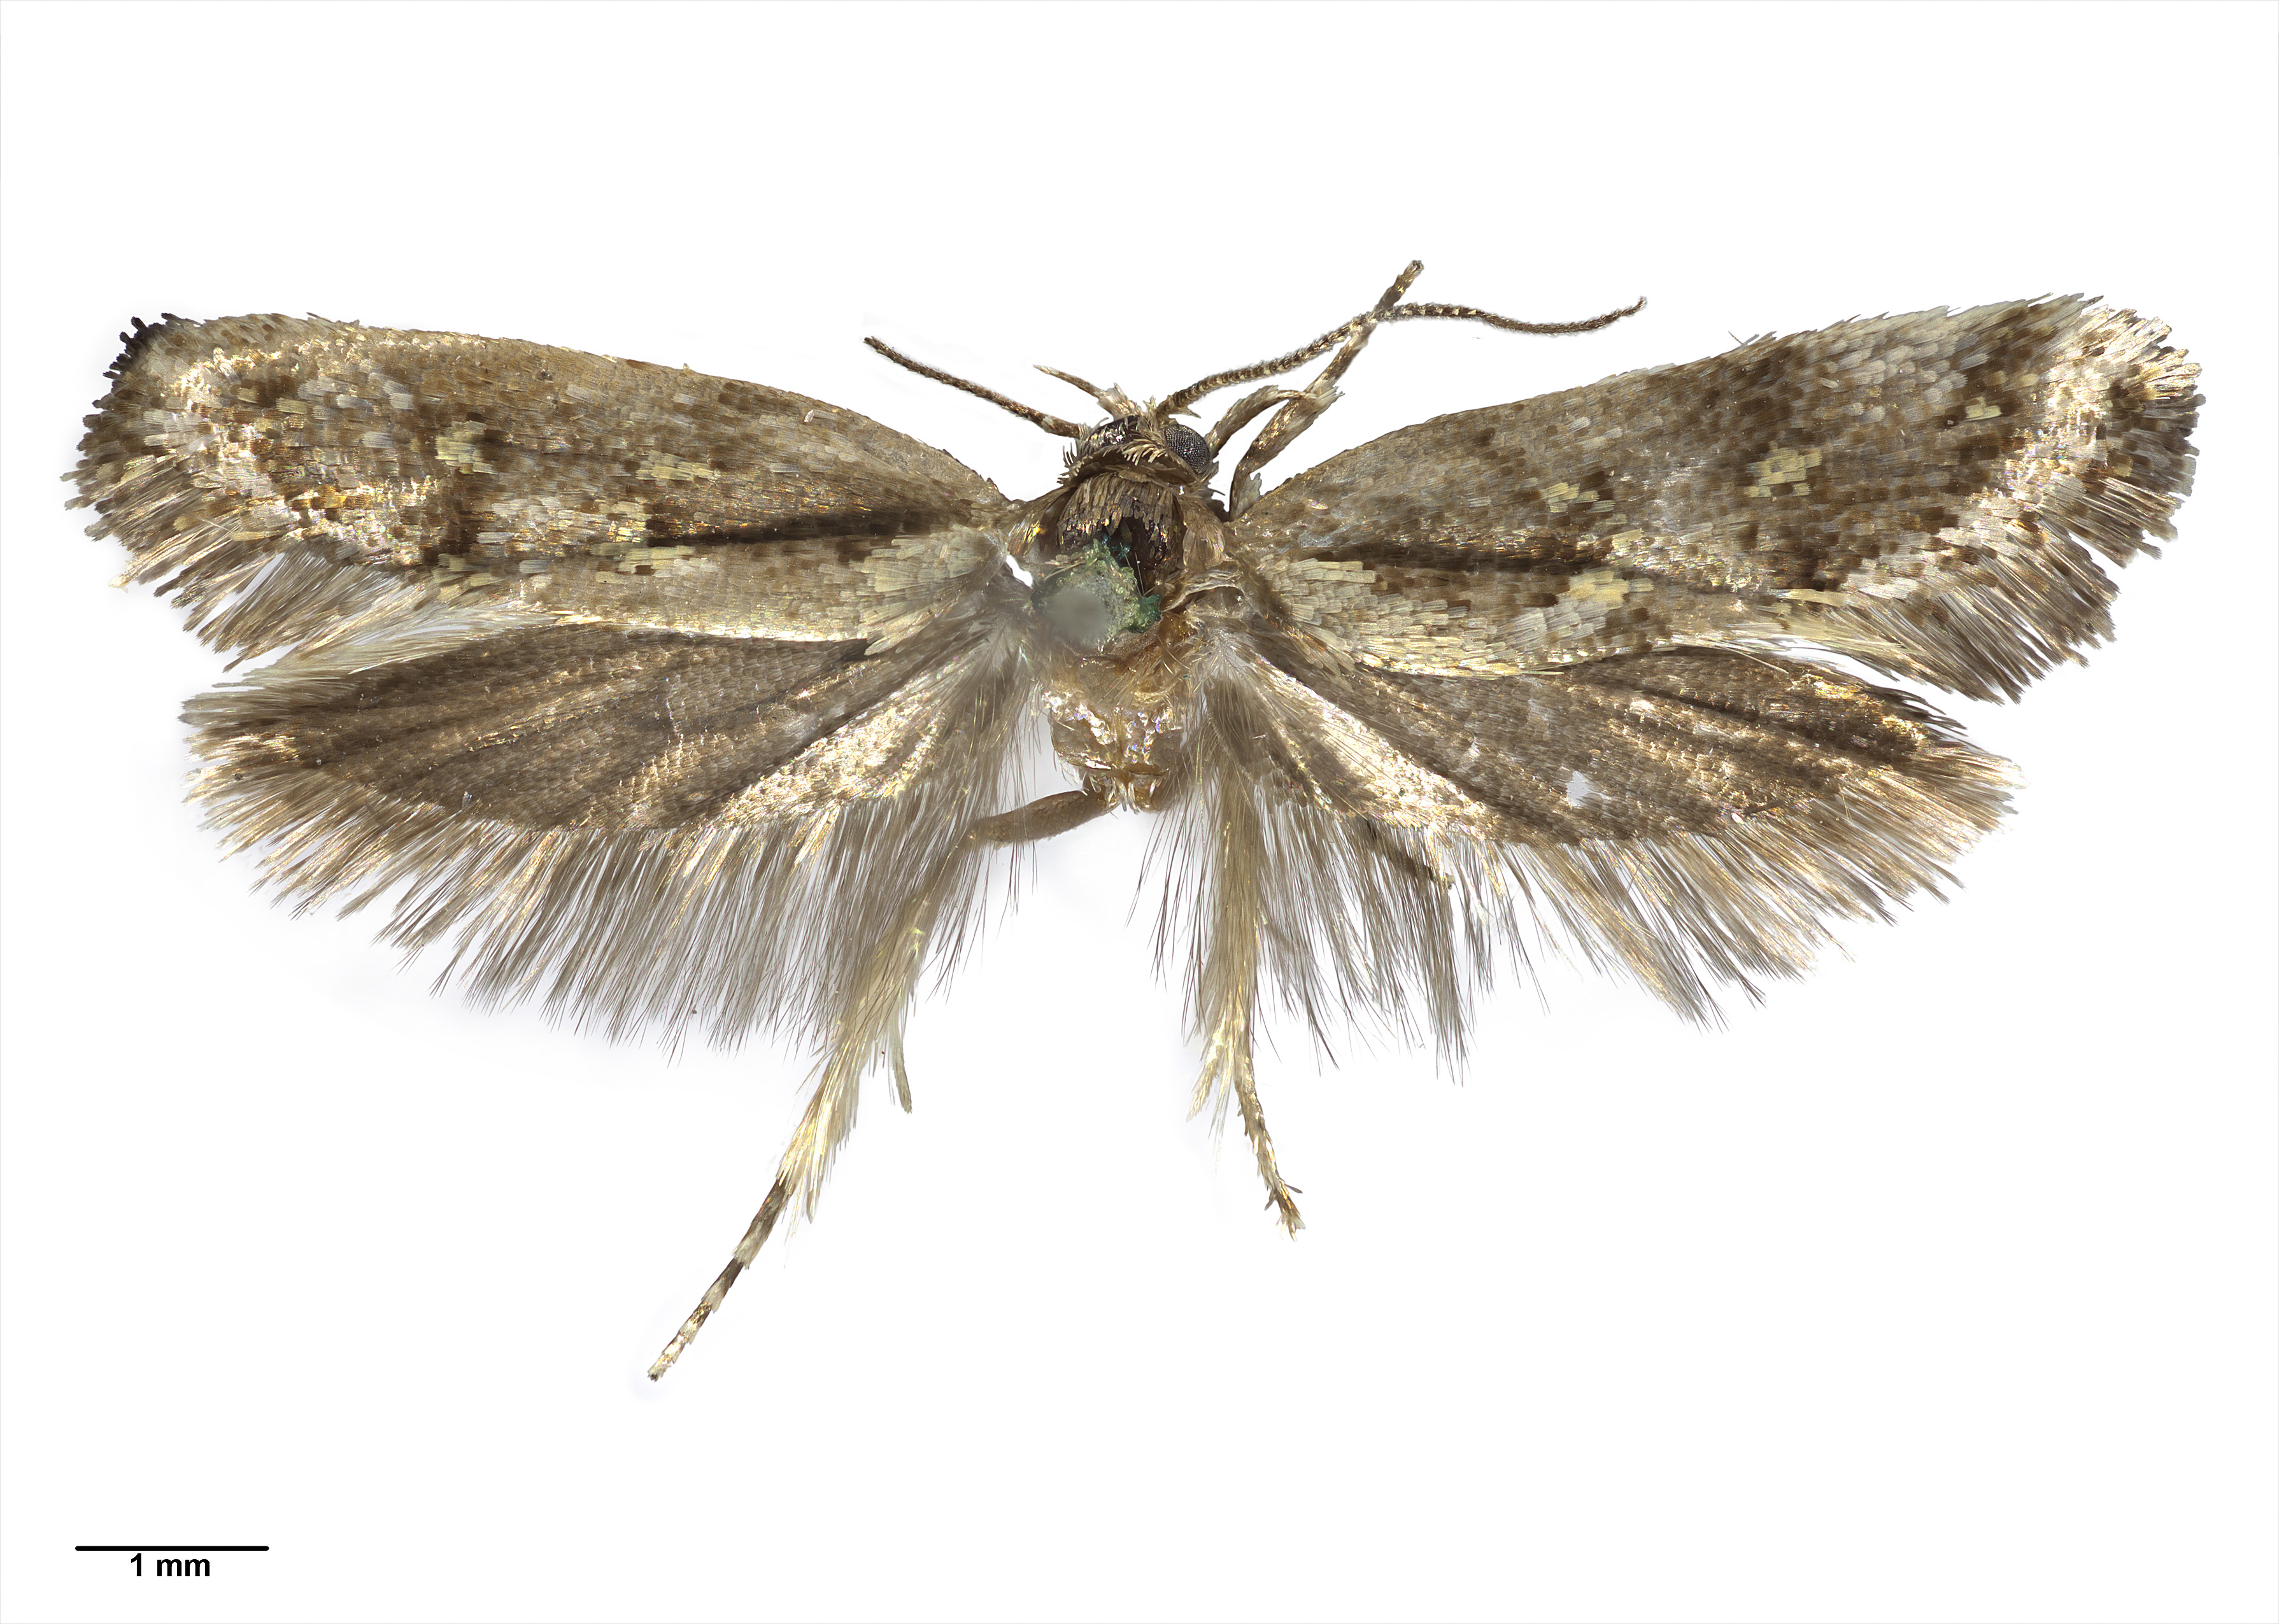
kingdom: Animalia
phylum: Arthropoda
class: Insecta
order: Lepidoptera
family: Oecophoridae
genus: Tingena
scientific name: Tingena lassa
